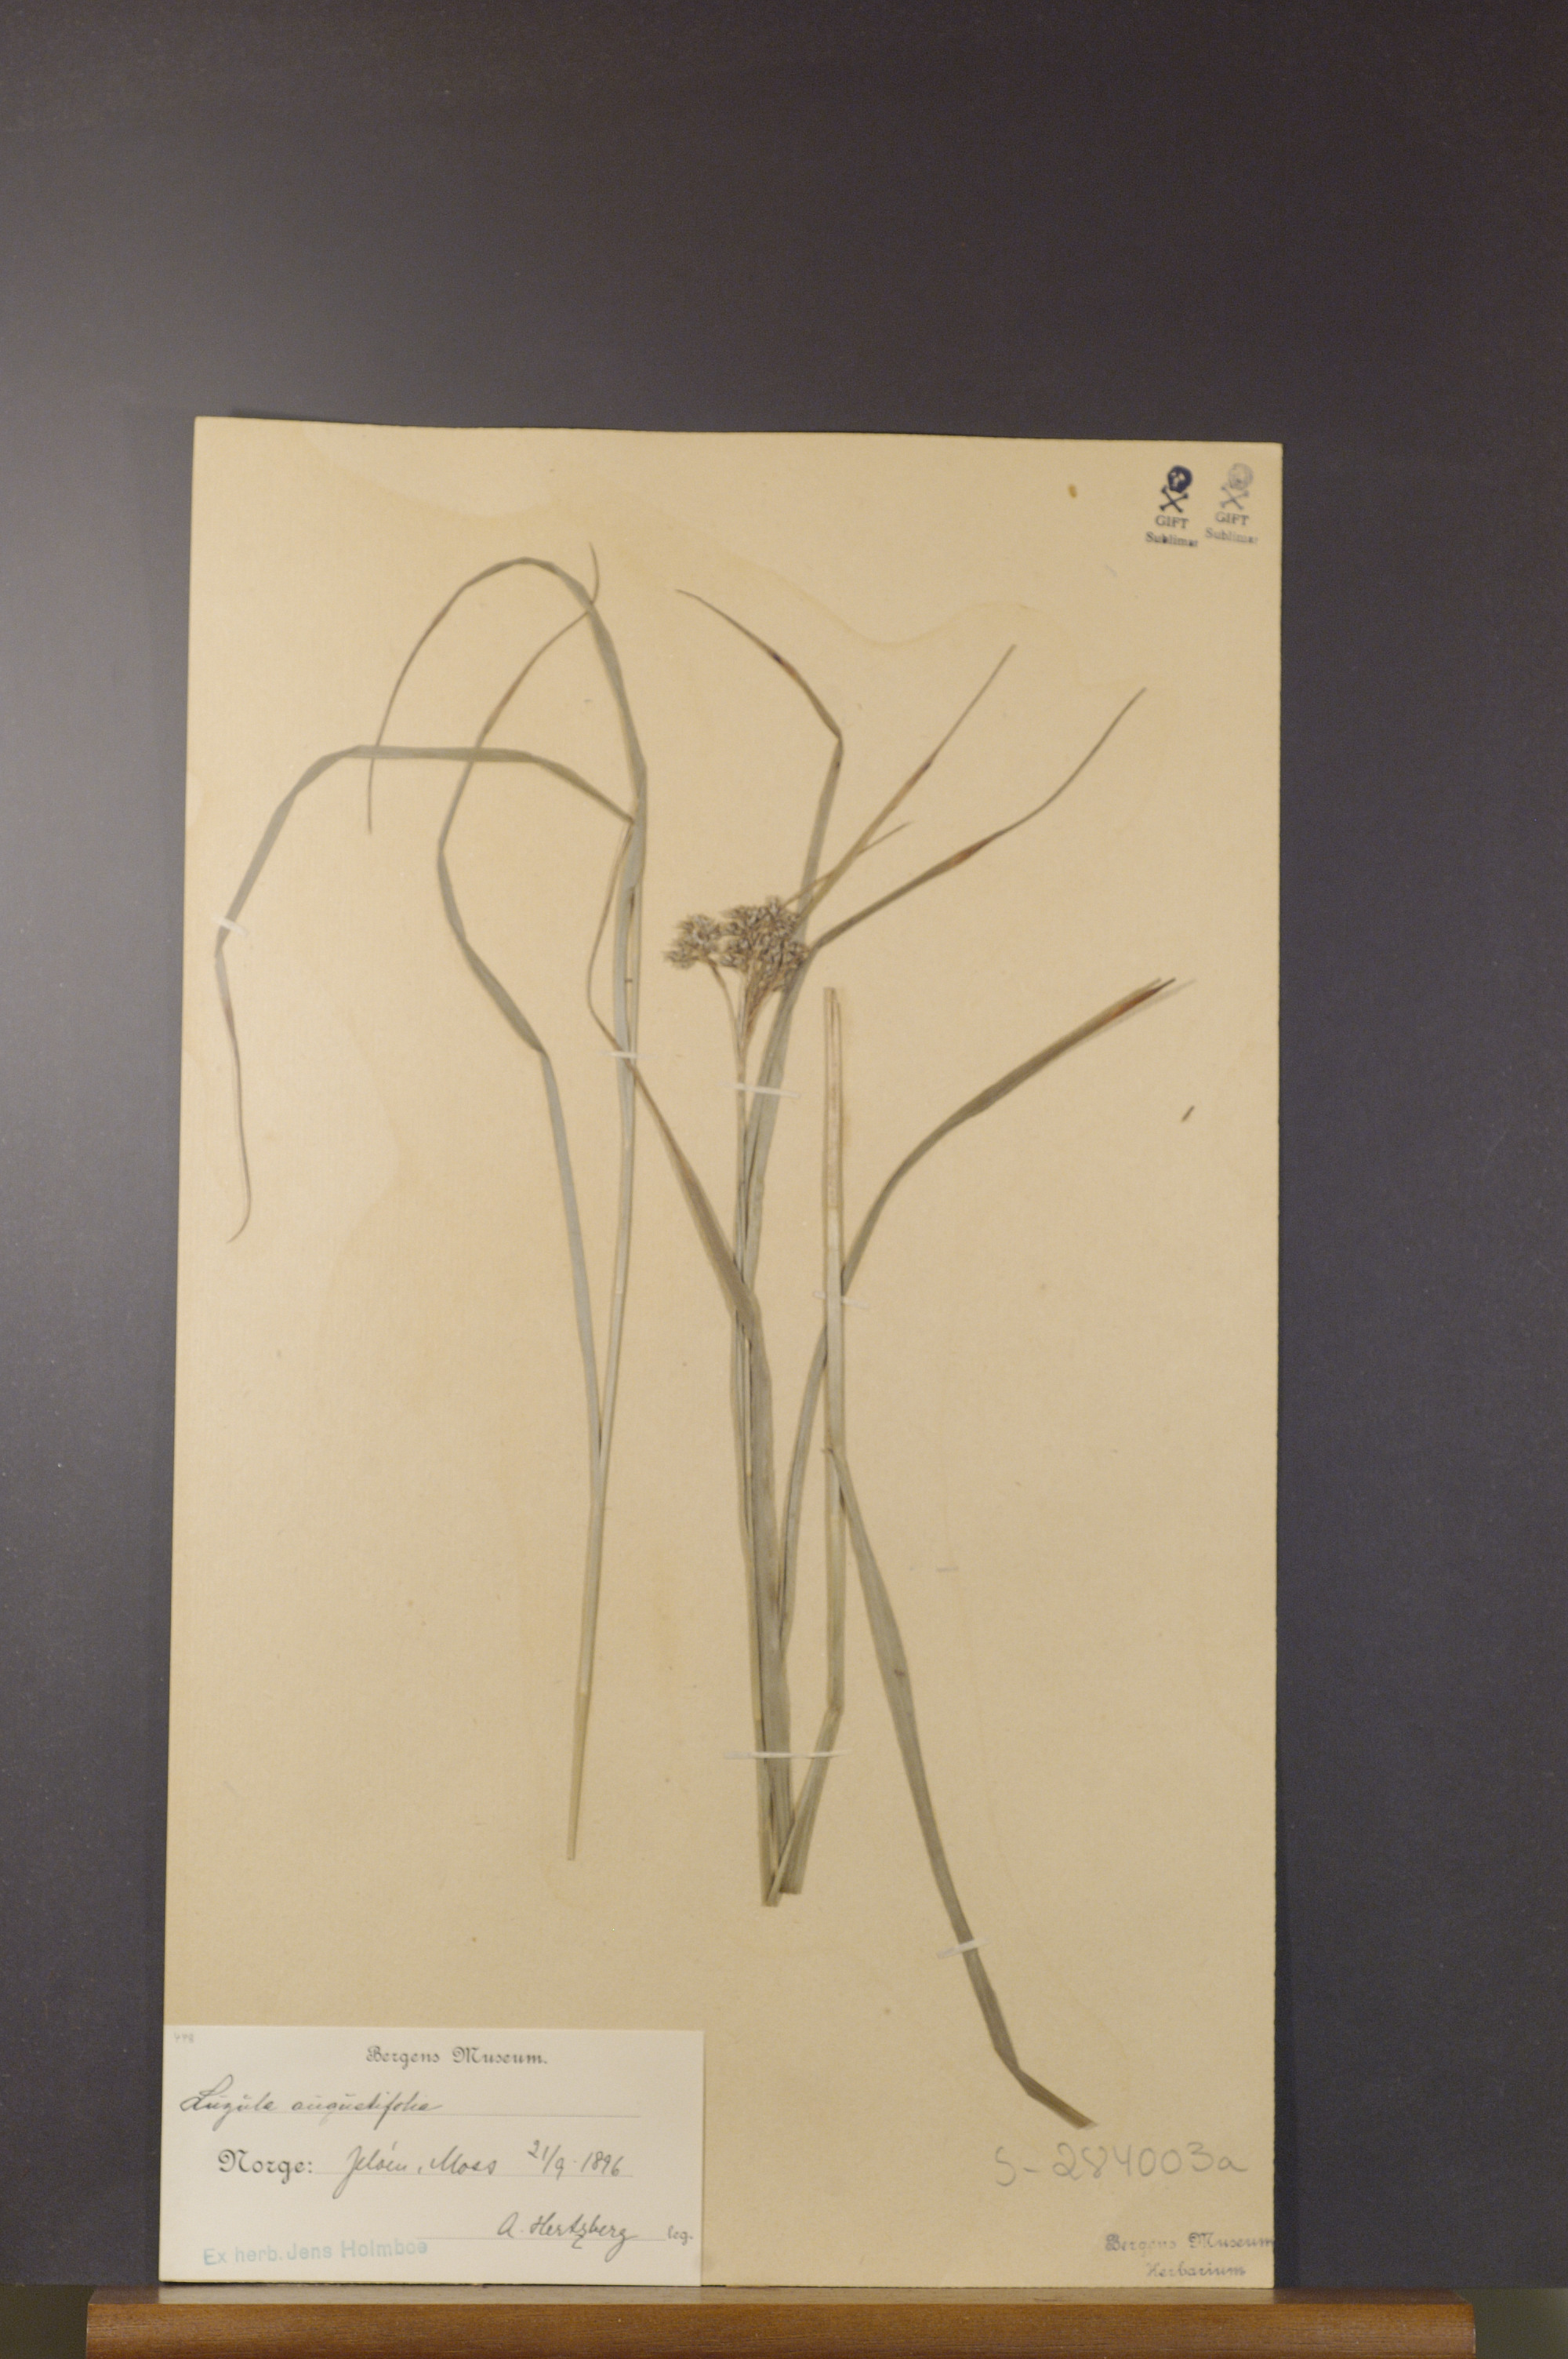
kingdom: Plantae
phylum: Tracheophyta
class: Liliopsida
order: Poales
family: Juncaceae
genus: Luzula
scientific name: Luzula luzuloides
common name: White wood-rush
